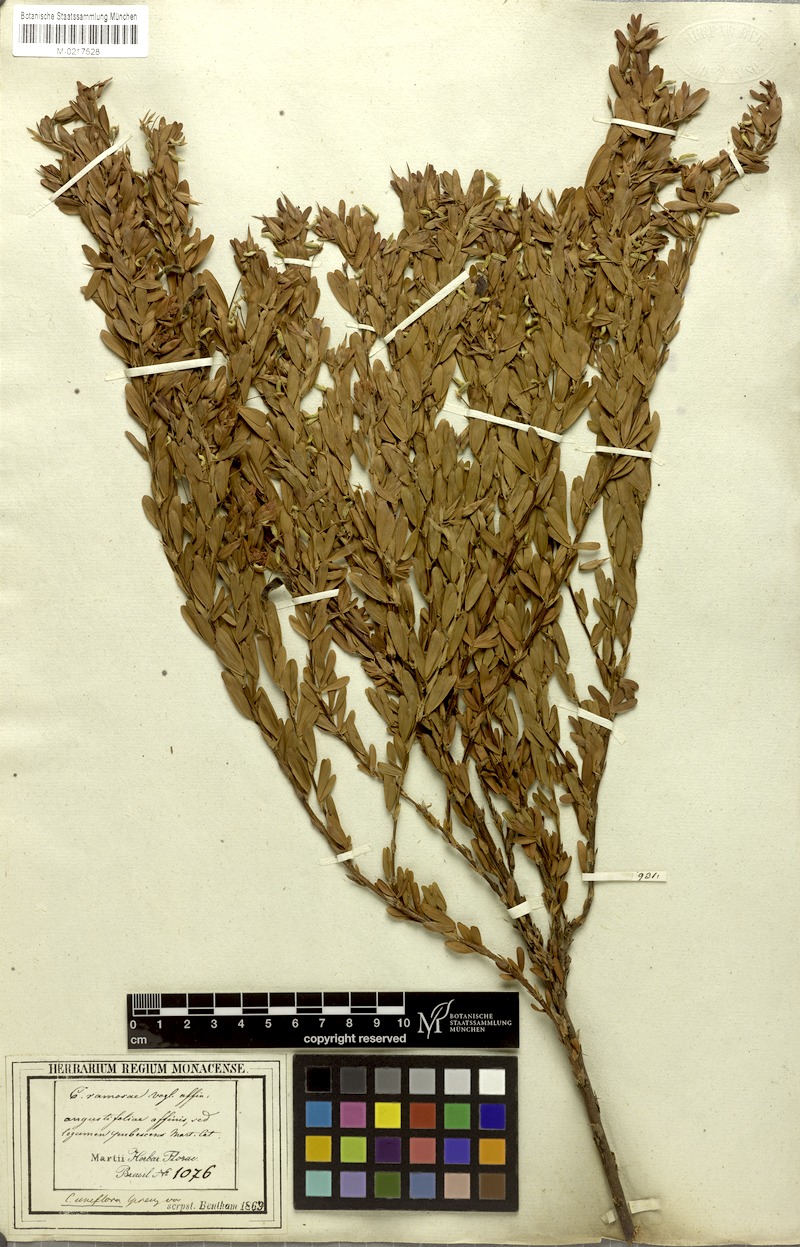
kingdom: Plantae
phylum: Tracheophyta
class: Magnoliopsida
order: Fabales
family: Fabaceae
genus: Chamaecrista
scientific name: Chamaecrista langsdorffii
